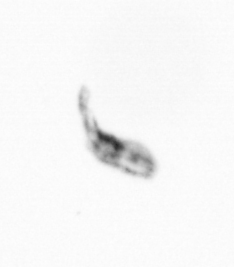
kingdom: Animalia
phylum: Arthropoda
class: Copepoda
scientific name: Copepoda
